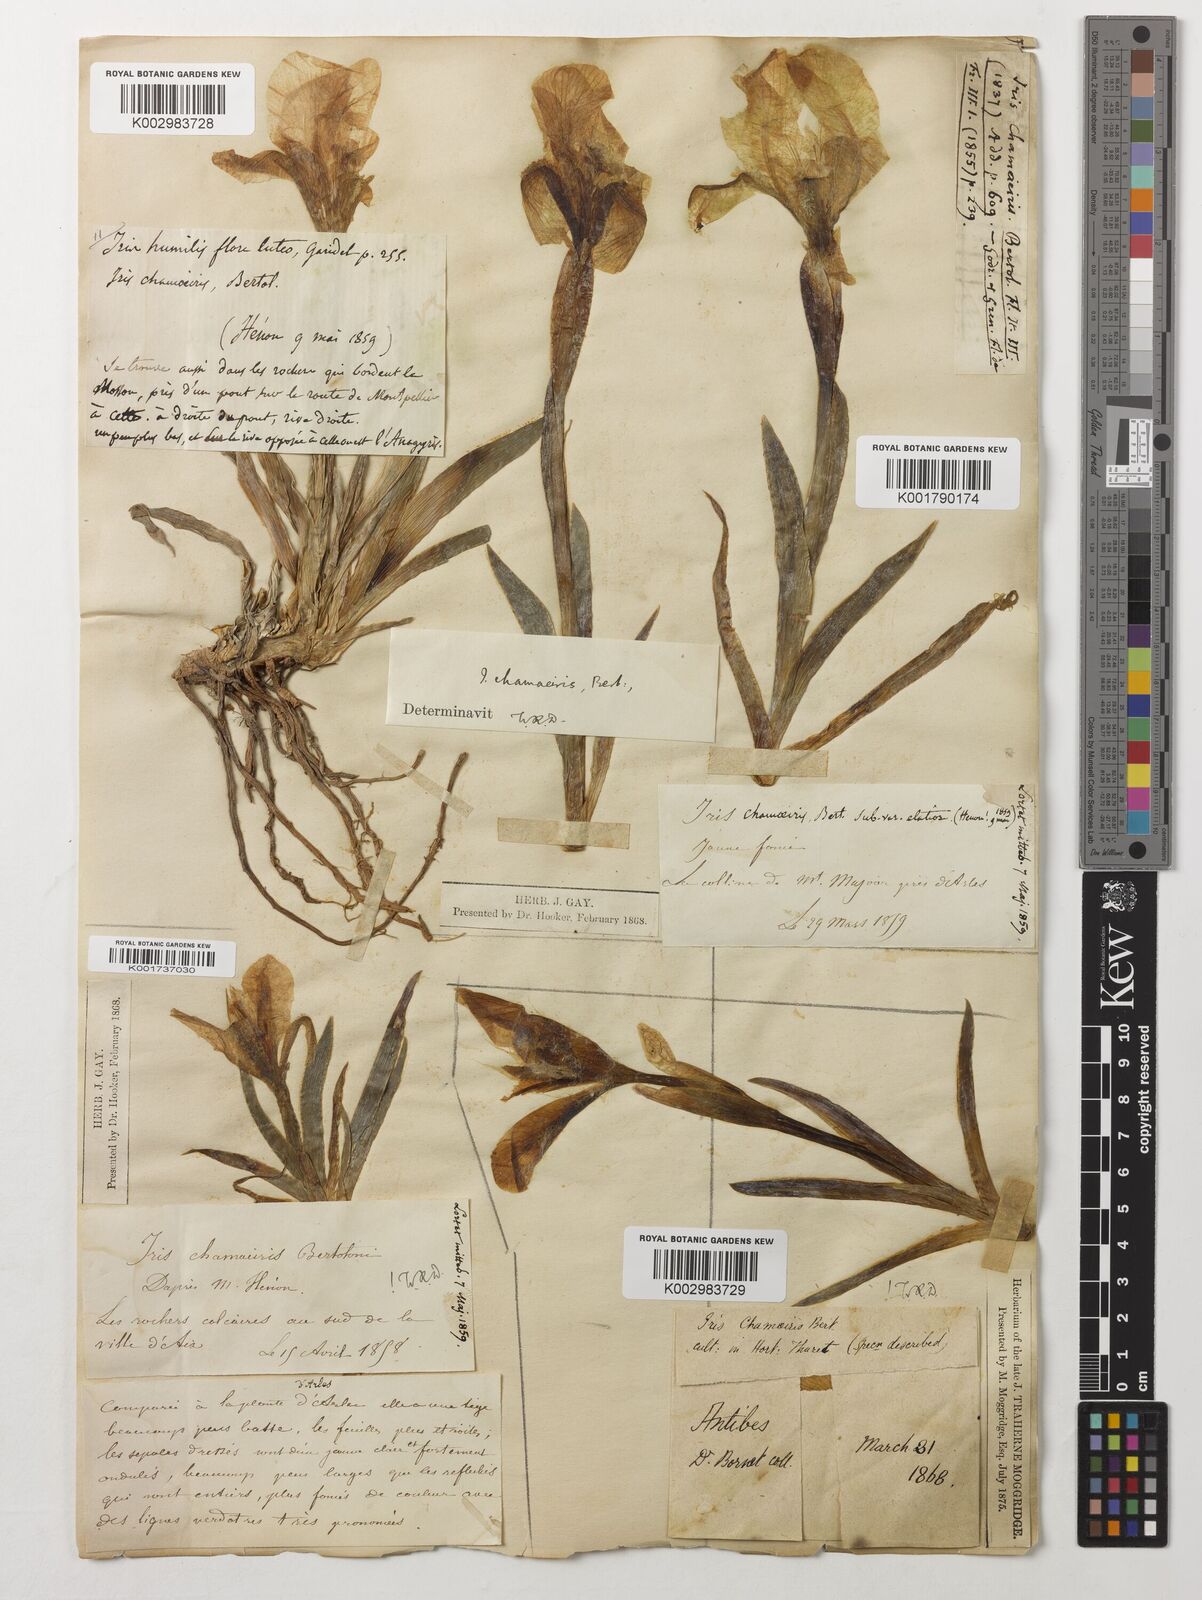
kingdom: Plantae
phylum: Tracheophyta
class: Liliopsida
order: Asparagales
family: Iridaceae
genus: Iris
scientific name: Iris lutescens
